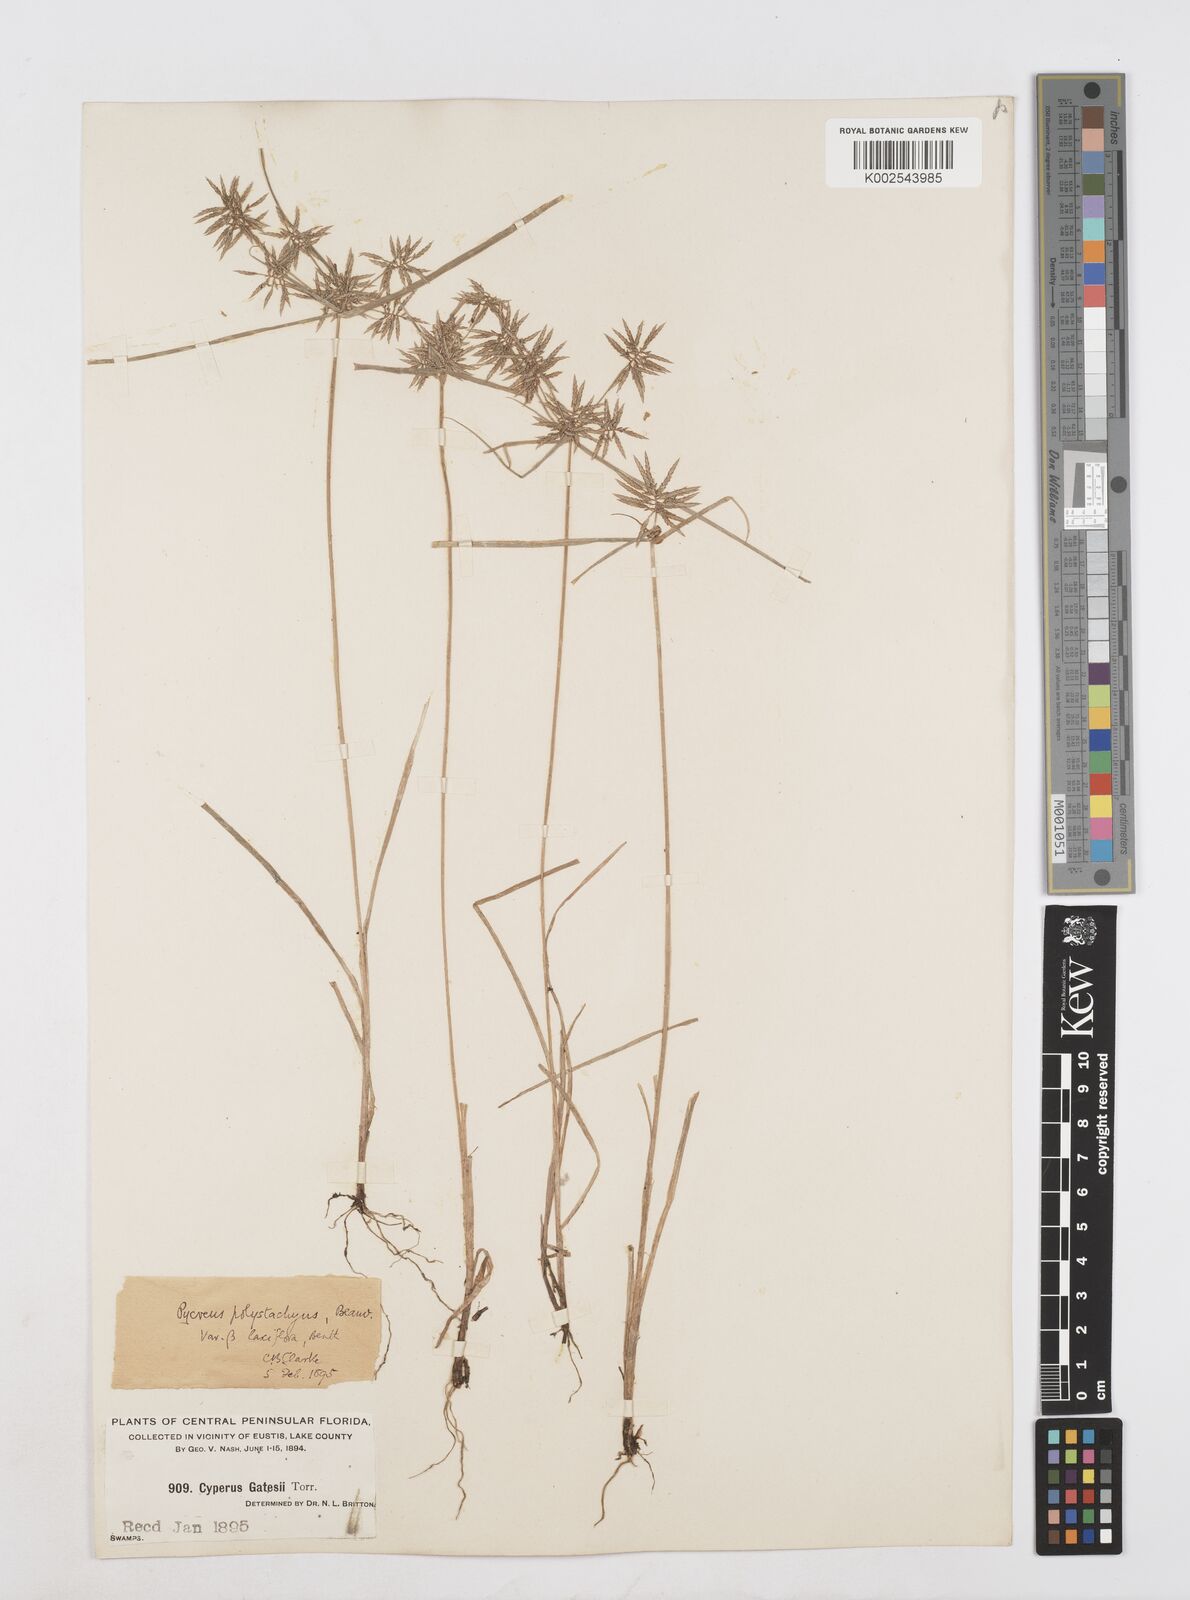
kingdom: Plantae
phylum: Tracheophyta
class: Liliopsida
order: Poales
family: Cyperaceae
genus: Cyperus
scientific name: Cyperus polystachyos
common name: Bunchy flat sedge
